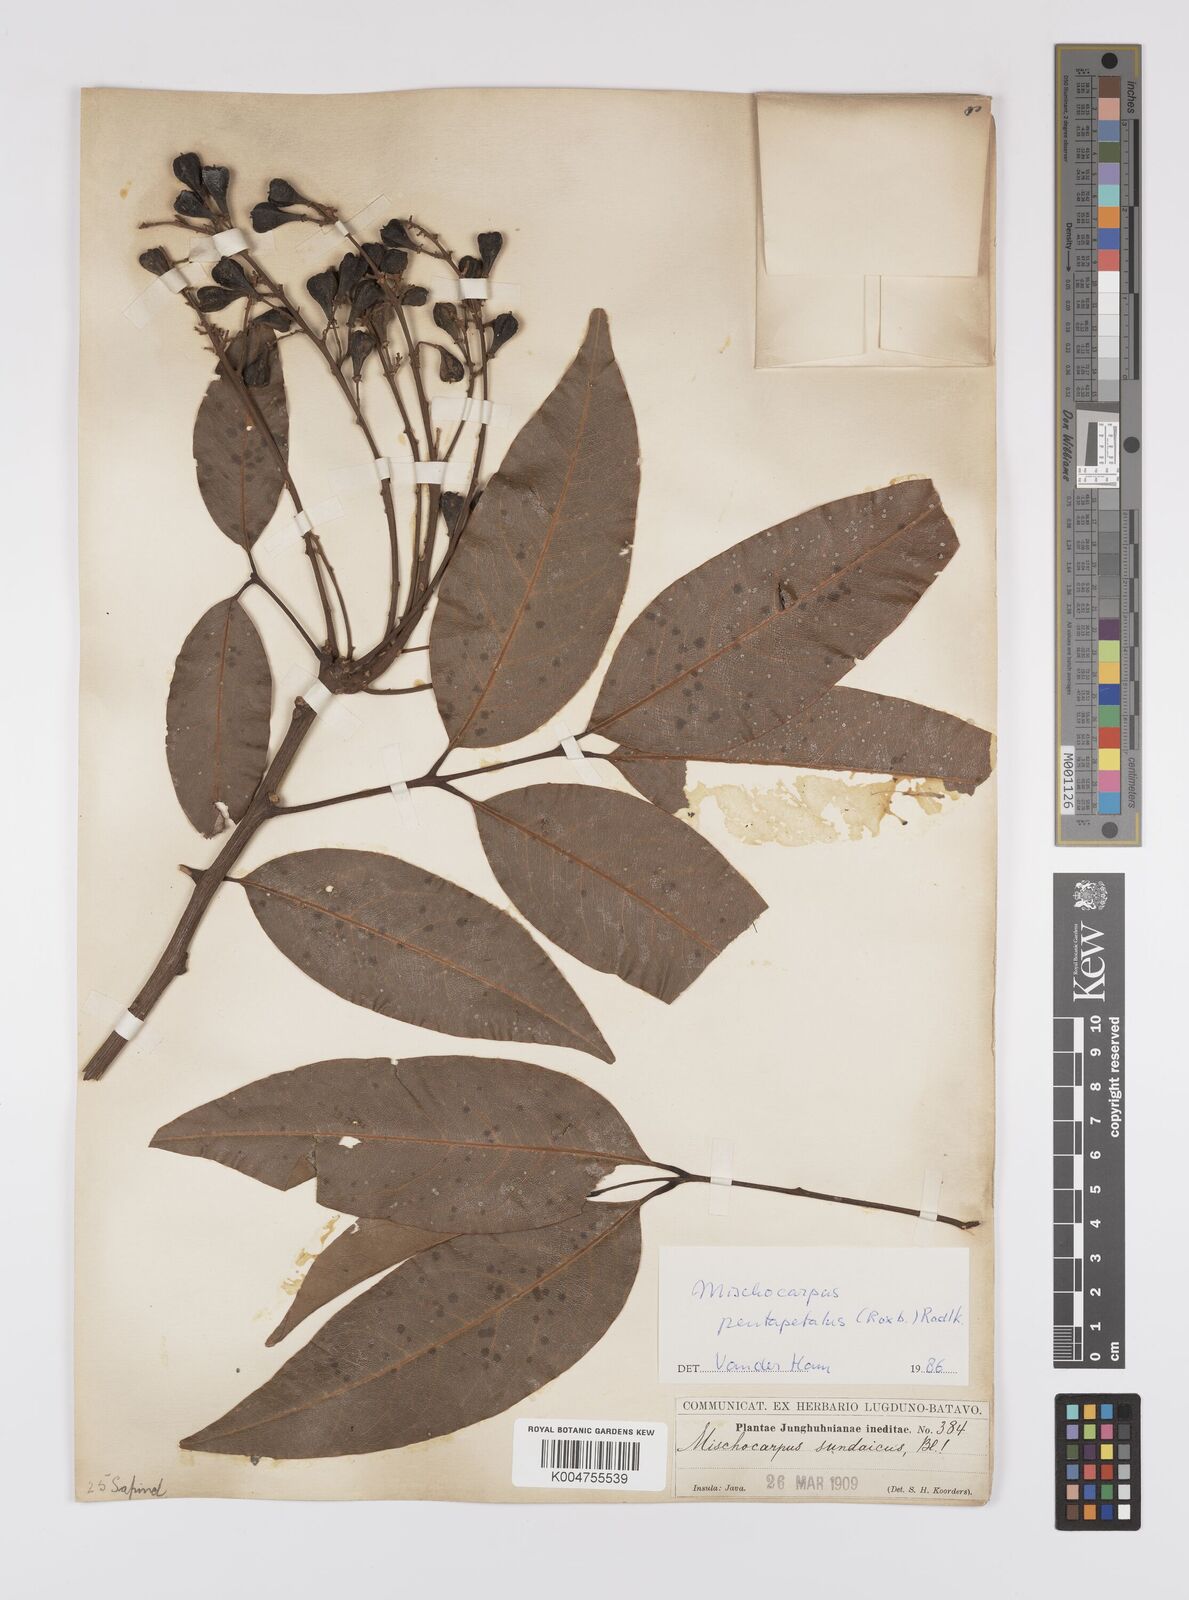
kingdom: Plantae
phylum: Tracheophyta
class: Magnoliopsida
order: Sapindales
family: Sapindaceae
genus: Mischocarpus
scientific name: Mischocarpus pentapetalus
